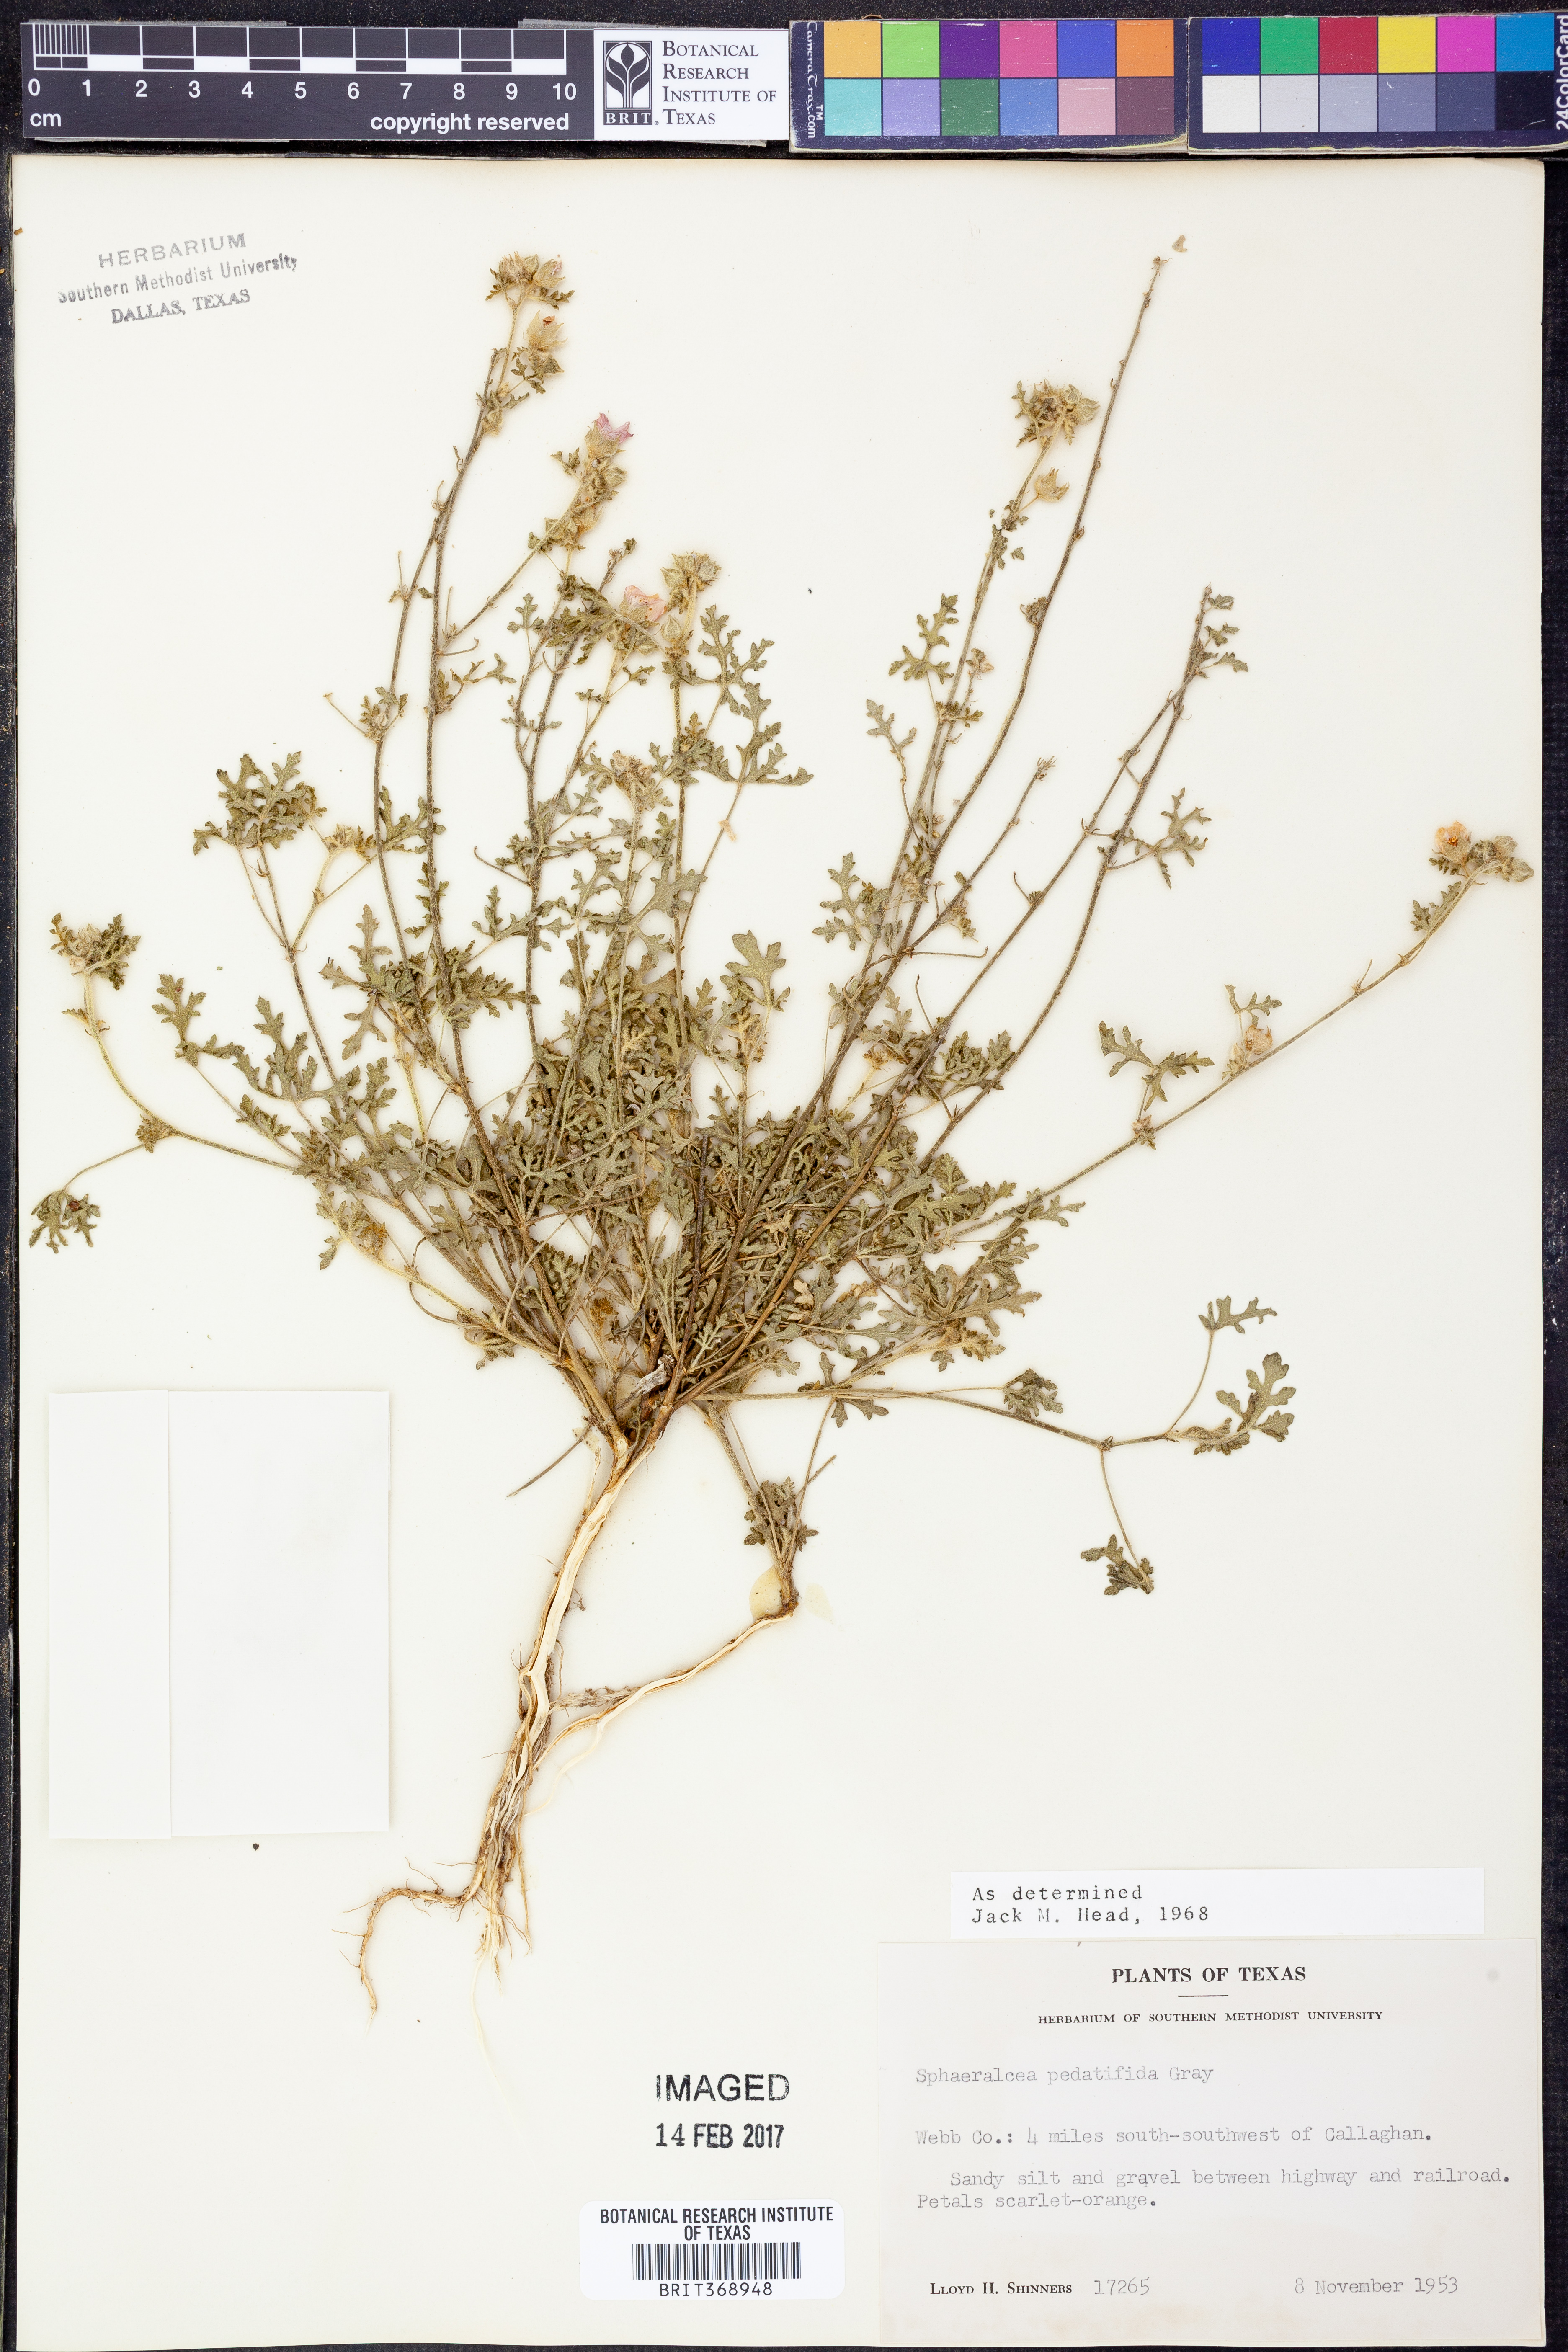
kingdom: Plantae
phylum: Tracheophyta
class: Magnoliopsida
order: Malvales
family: Malvaceae
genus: Sphaeralcea
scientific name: Sphaeralcea pedatifida
